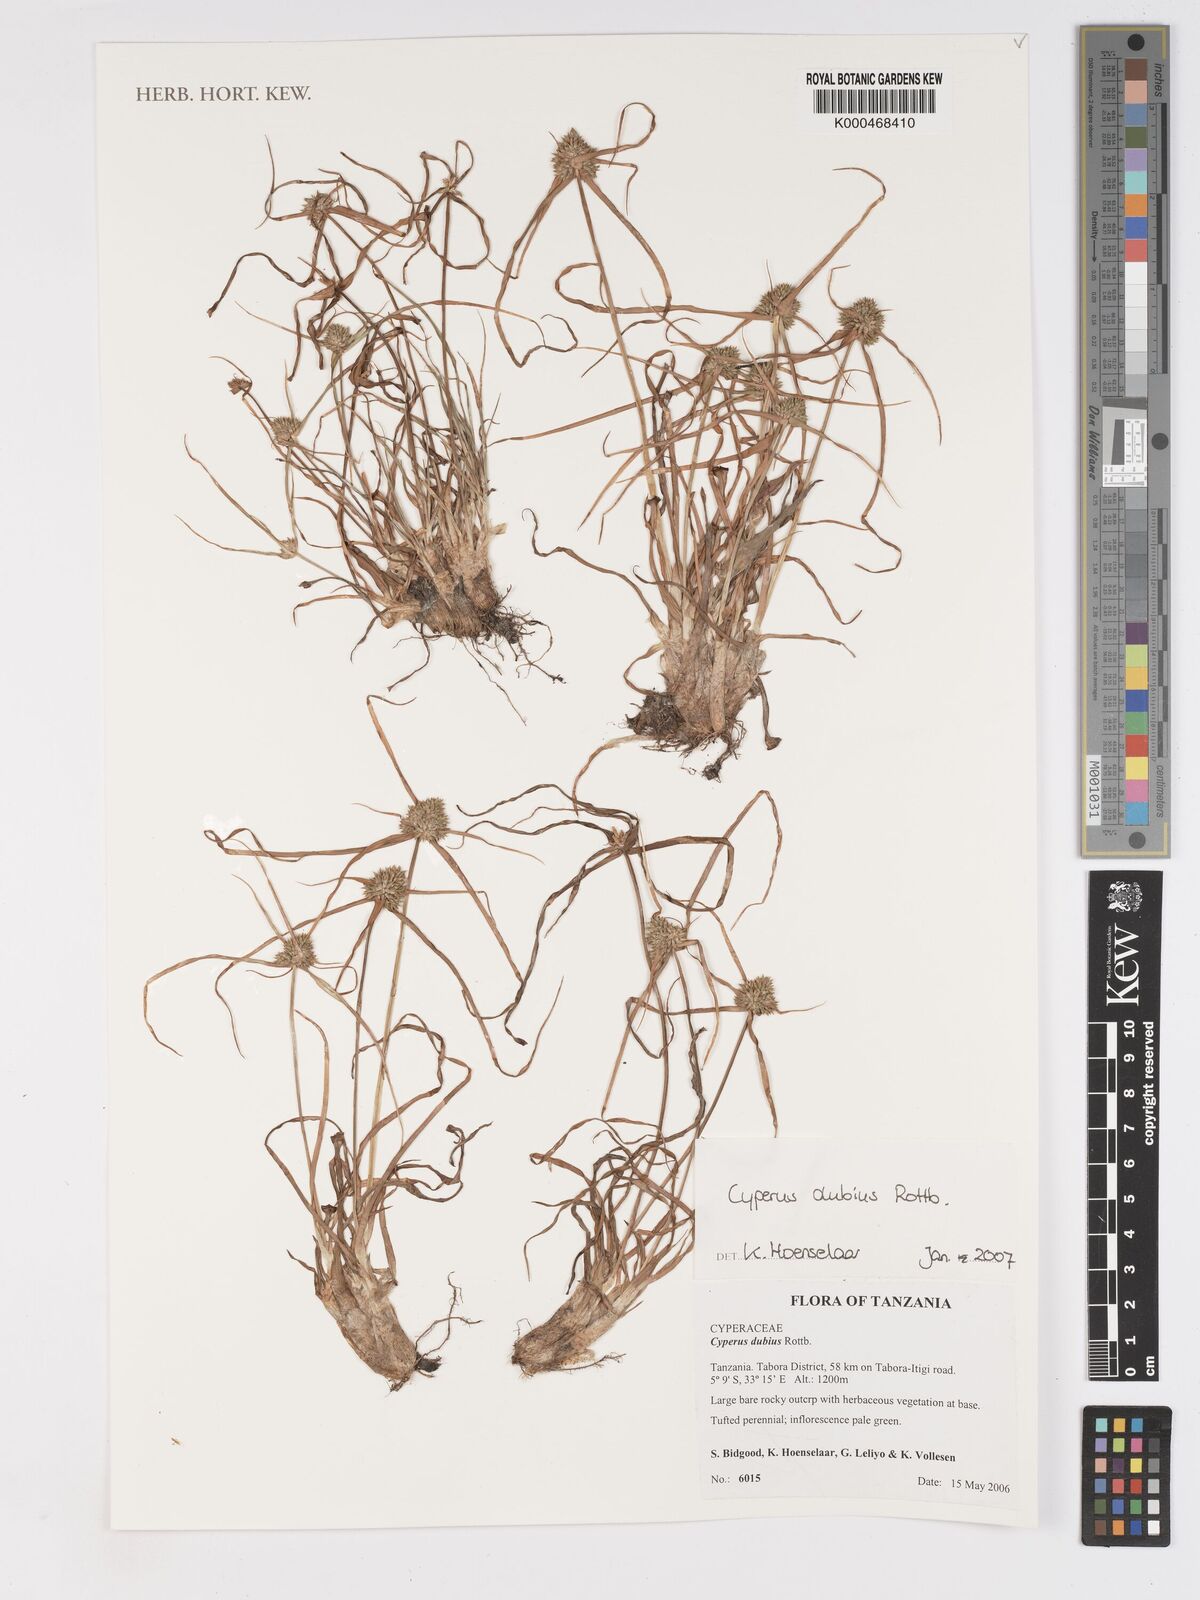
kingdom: Plantae
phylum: Tracheophyta
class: Liliopsida
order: Poales
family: Cyperaceae
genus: Cyperus
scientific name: Cyperus dubius
